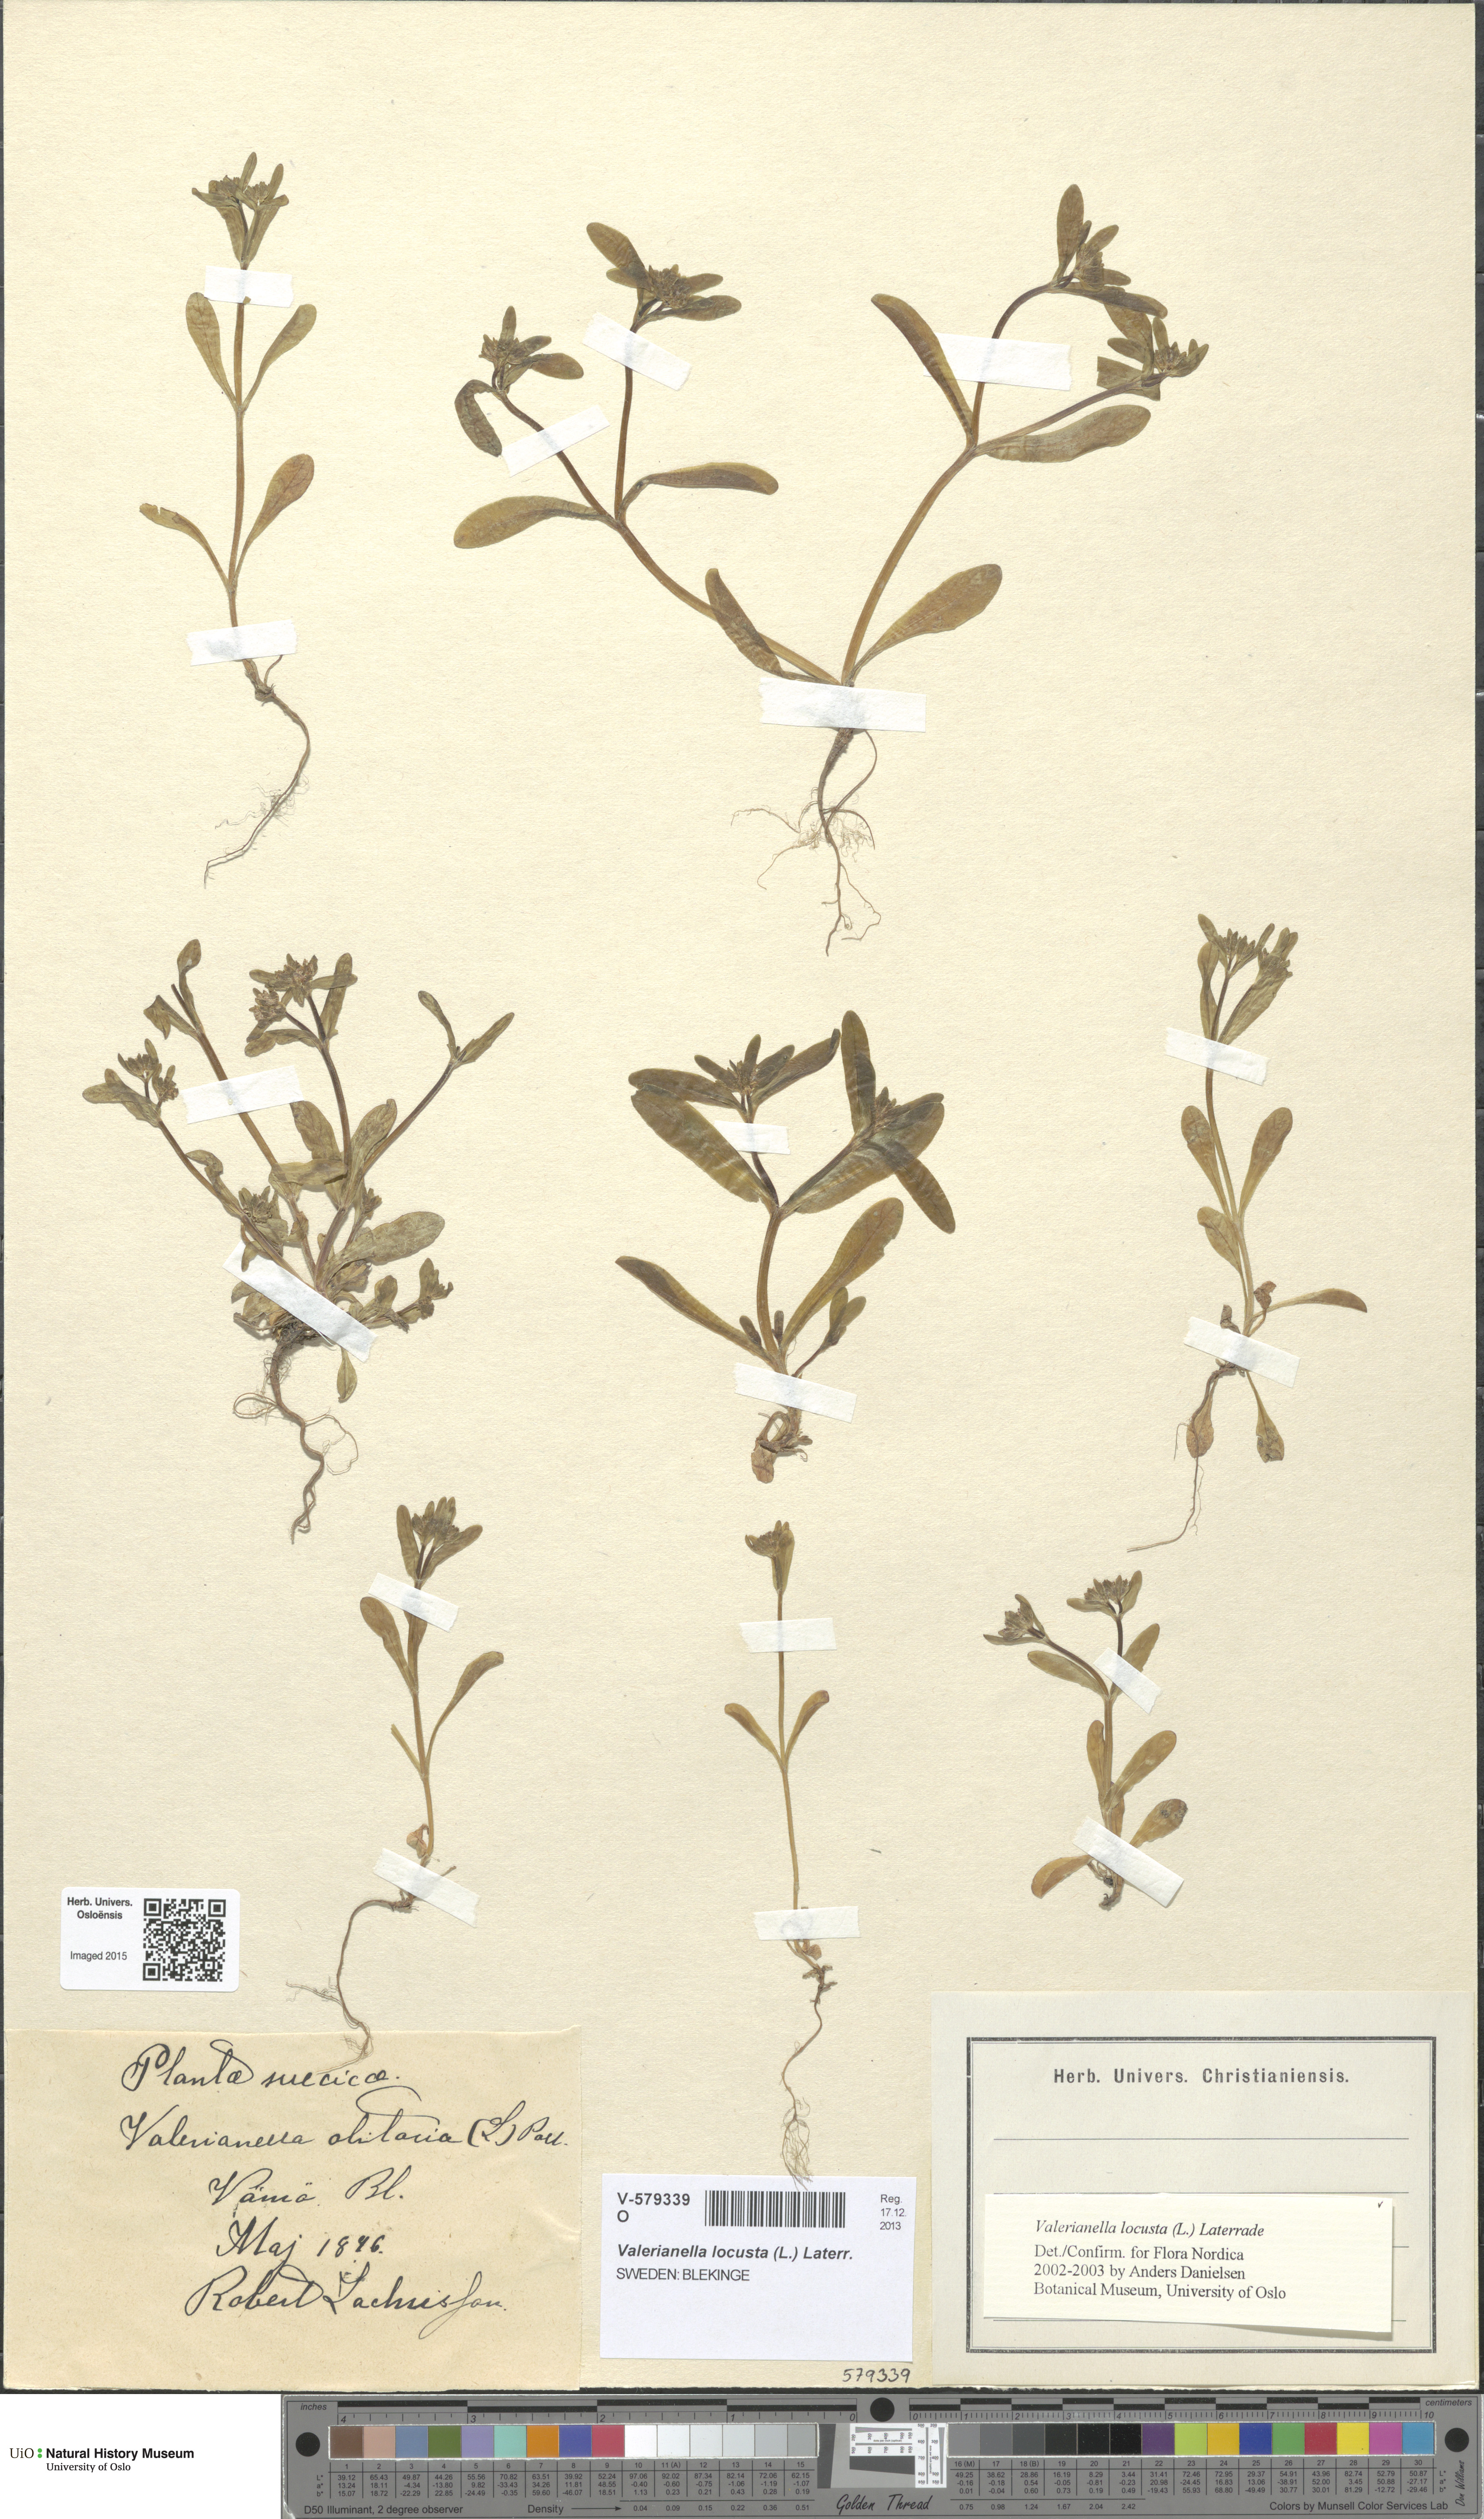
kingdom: Plantae
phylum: Tracheophyta
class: Magnoliopsida
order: Dipsacales
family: Caprifoliaceae
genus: Valerianella
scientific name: Valerianella locusta
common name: Common cornsalad
